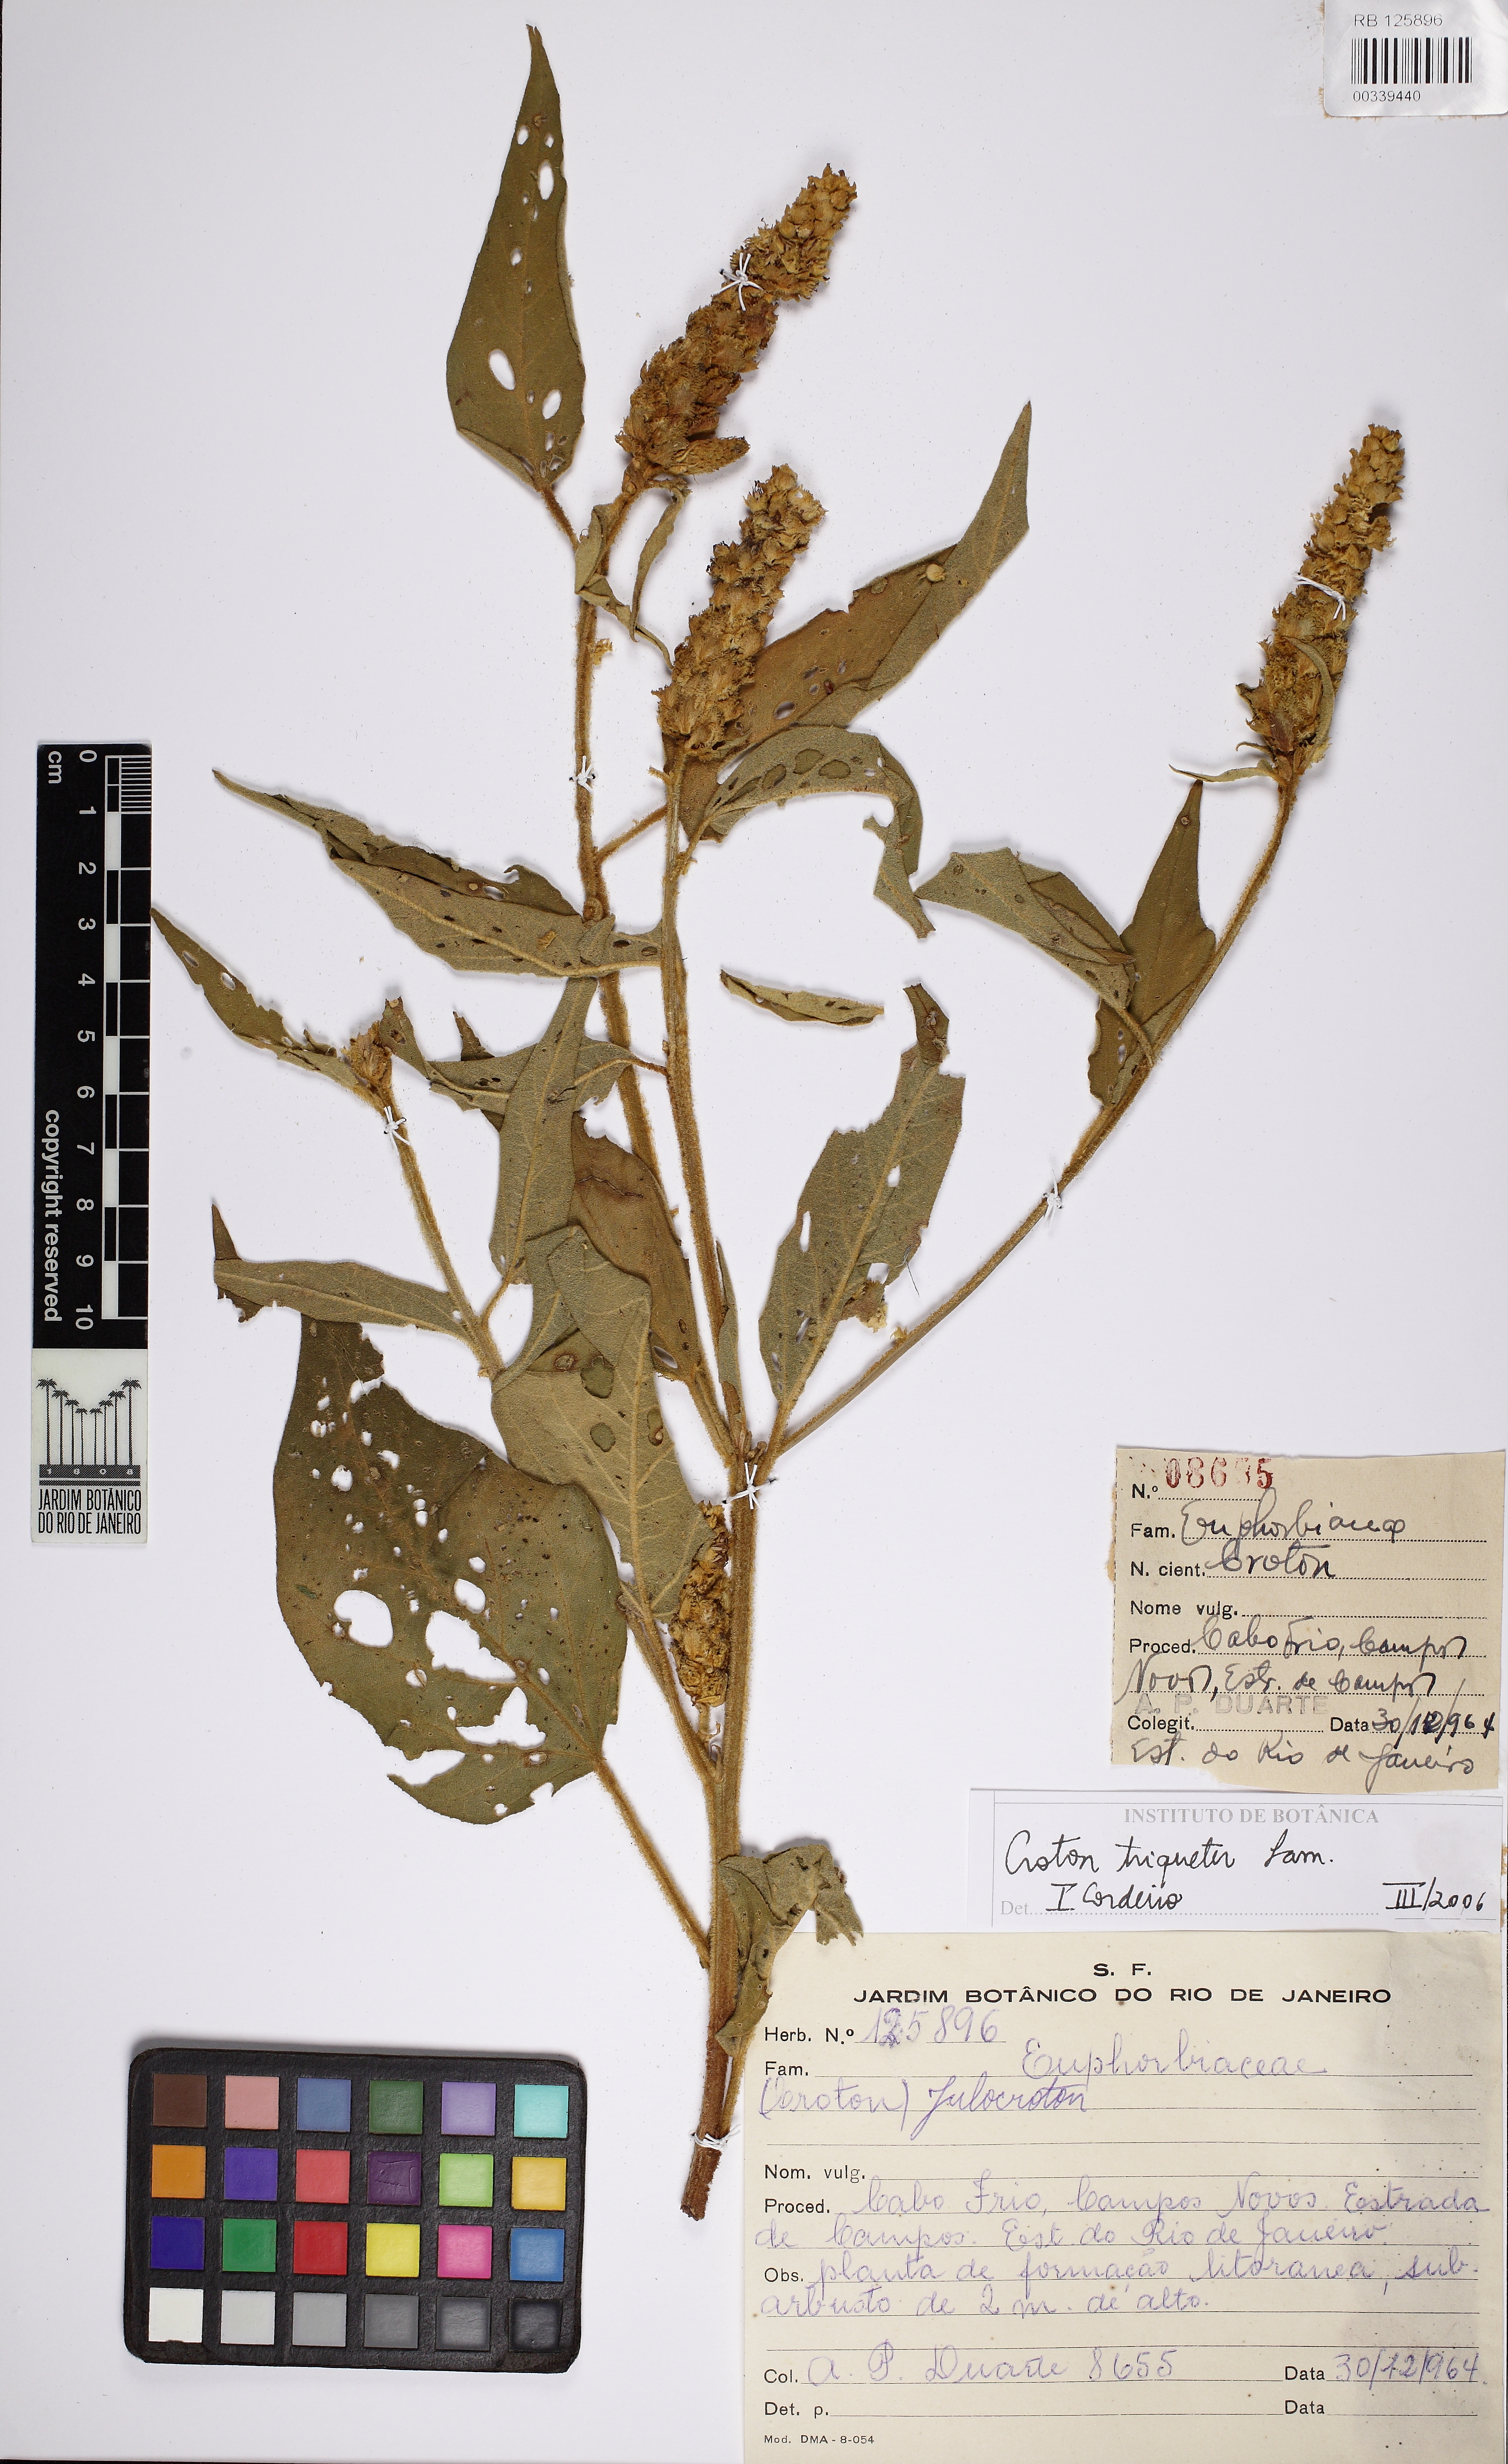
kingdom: Plantae
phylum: Tracheophyta
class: Magnoliopsida
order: Malpighiales
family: Euphorbiaceae
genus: Croton
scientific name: Croton triqueter
